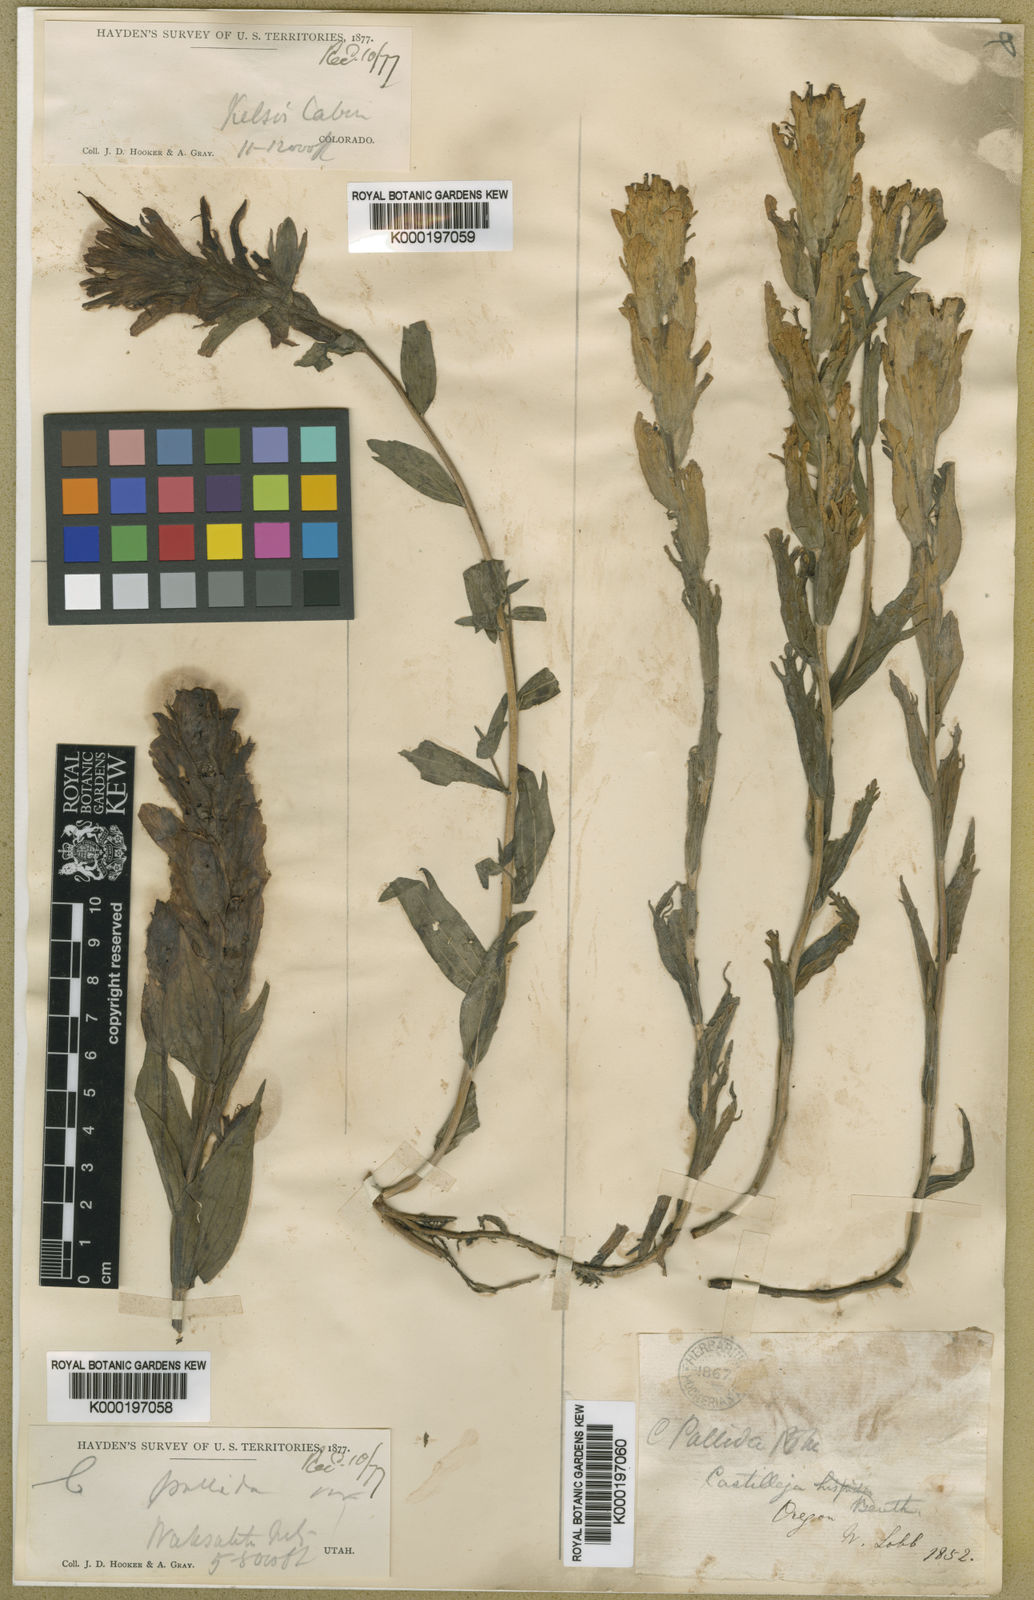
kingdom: Plantae
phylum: Tracheophyta
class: Magnoliopsida
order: Lamiales
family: Orobanchaceae
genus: Castilleja
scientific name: Castilleja pallida
